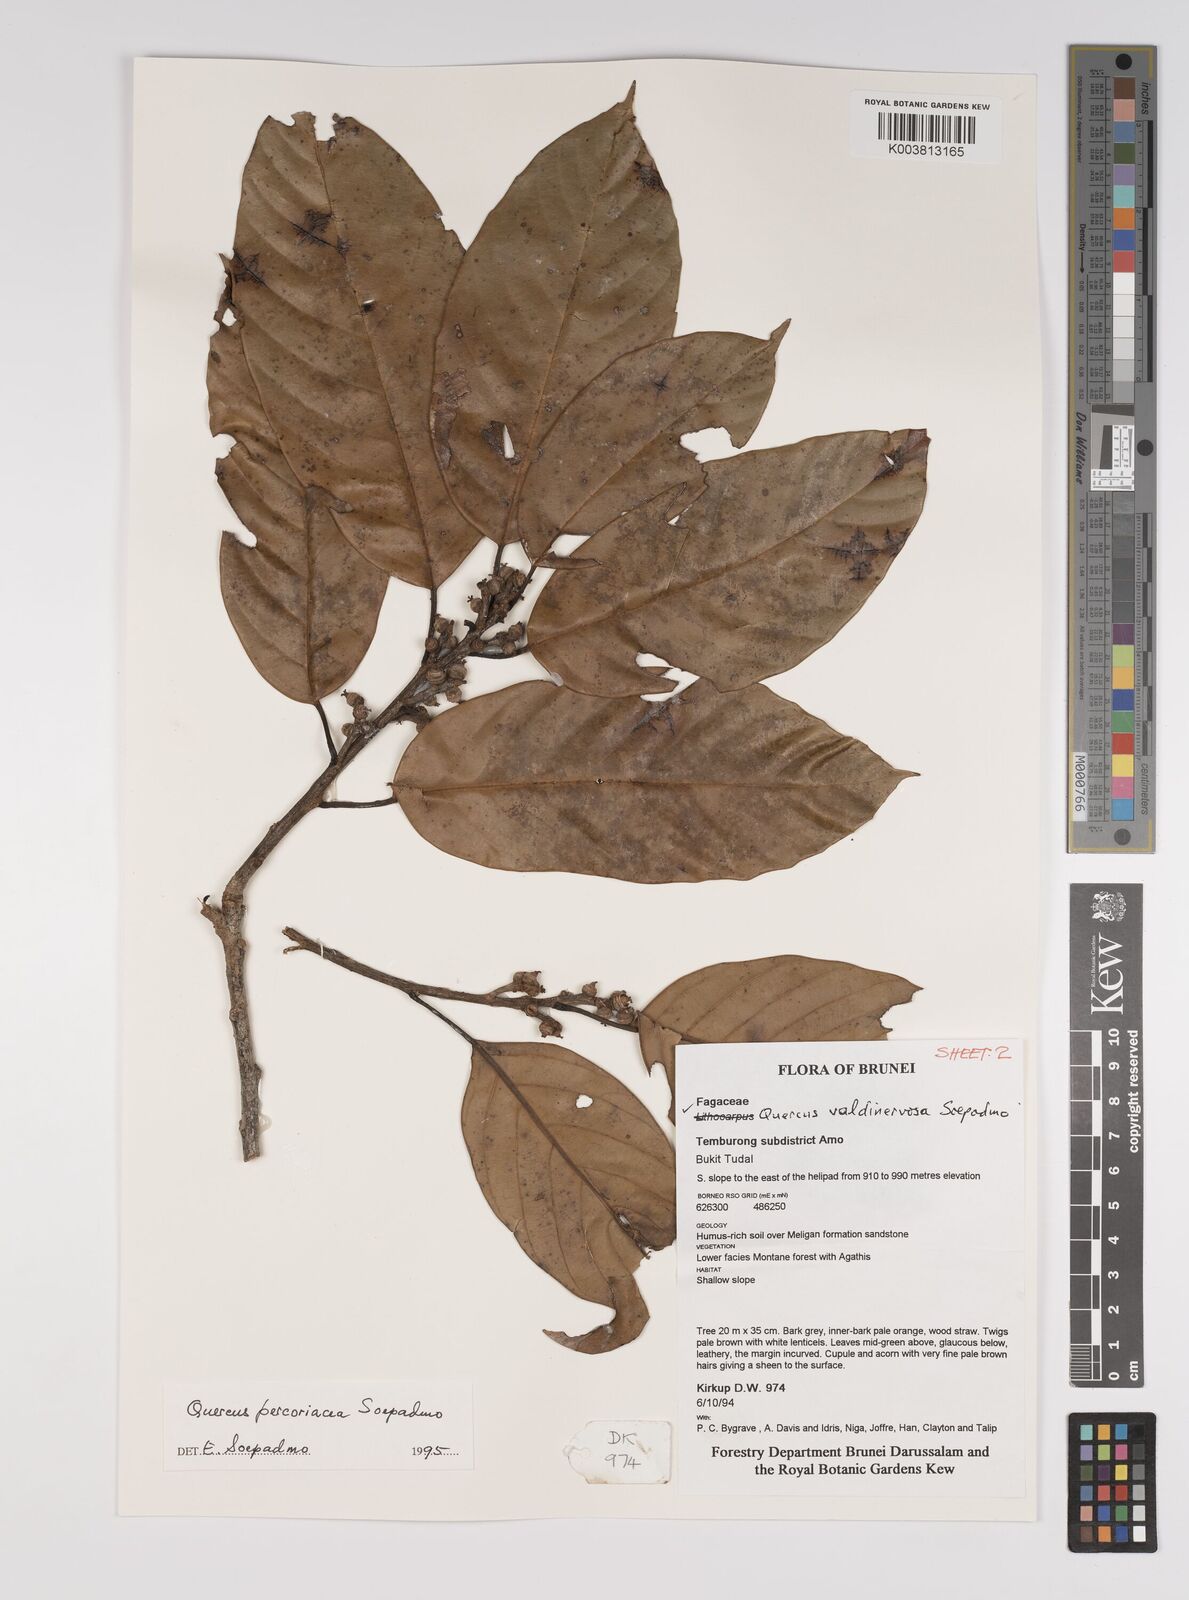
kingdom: Plantae
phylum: Tracheophyta
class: Magnoliopsida
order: Fagales
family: Fagaceae
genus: Quercus
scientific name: Quercus percoriacea
